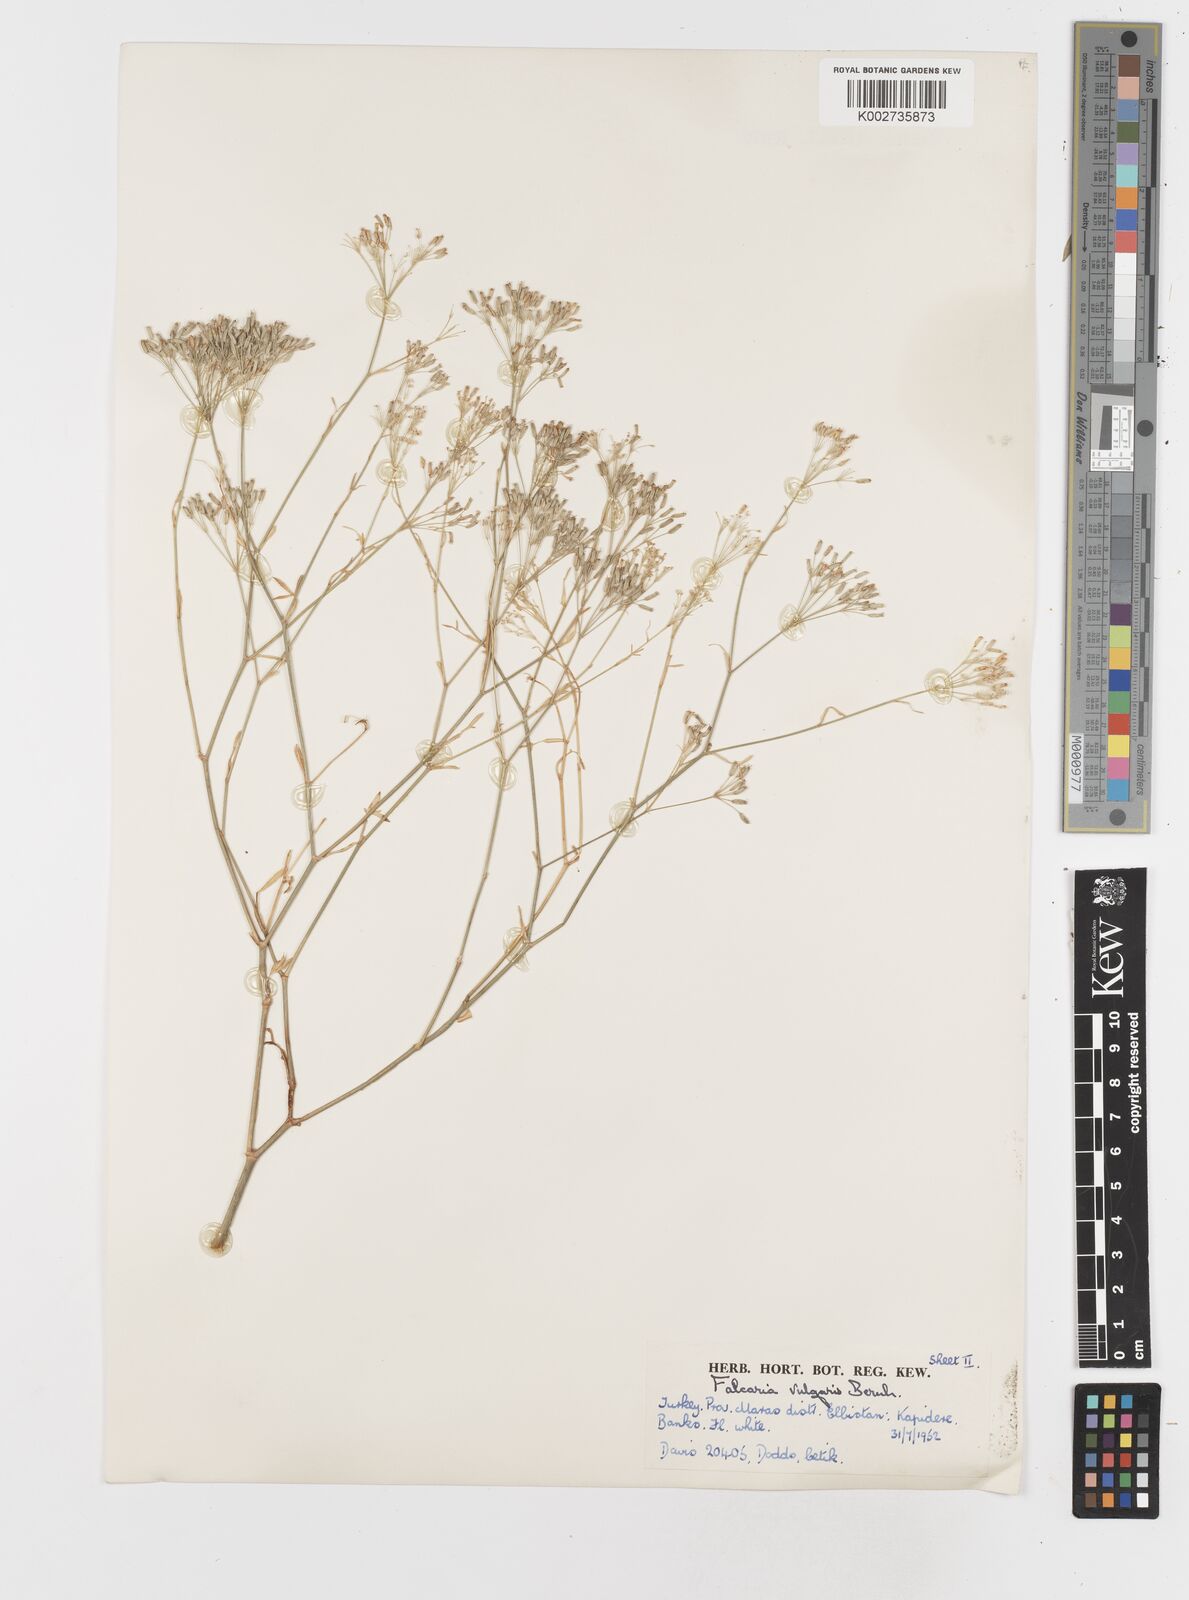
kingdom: Plantae
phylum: Tracheophyta
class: Magnoliopsida
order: Apiales
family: Apiaceae
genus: Falcaria
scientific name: Falcaria vulgaris
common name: Longleaf
